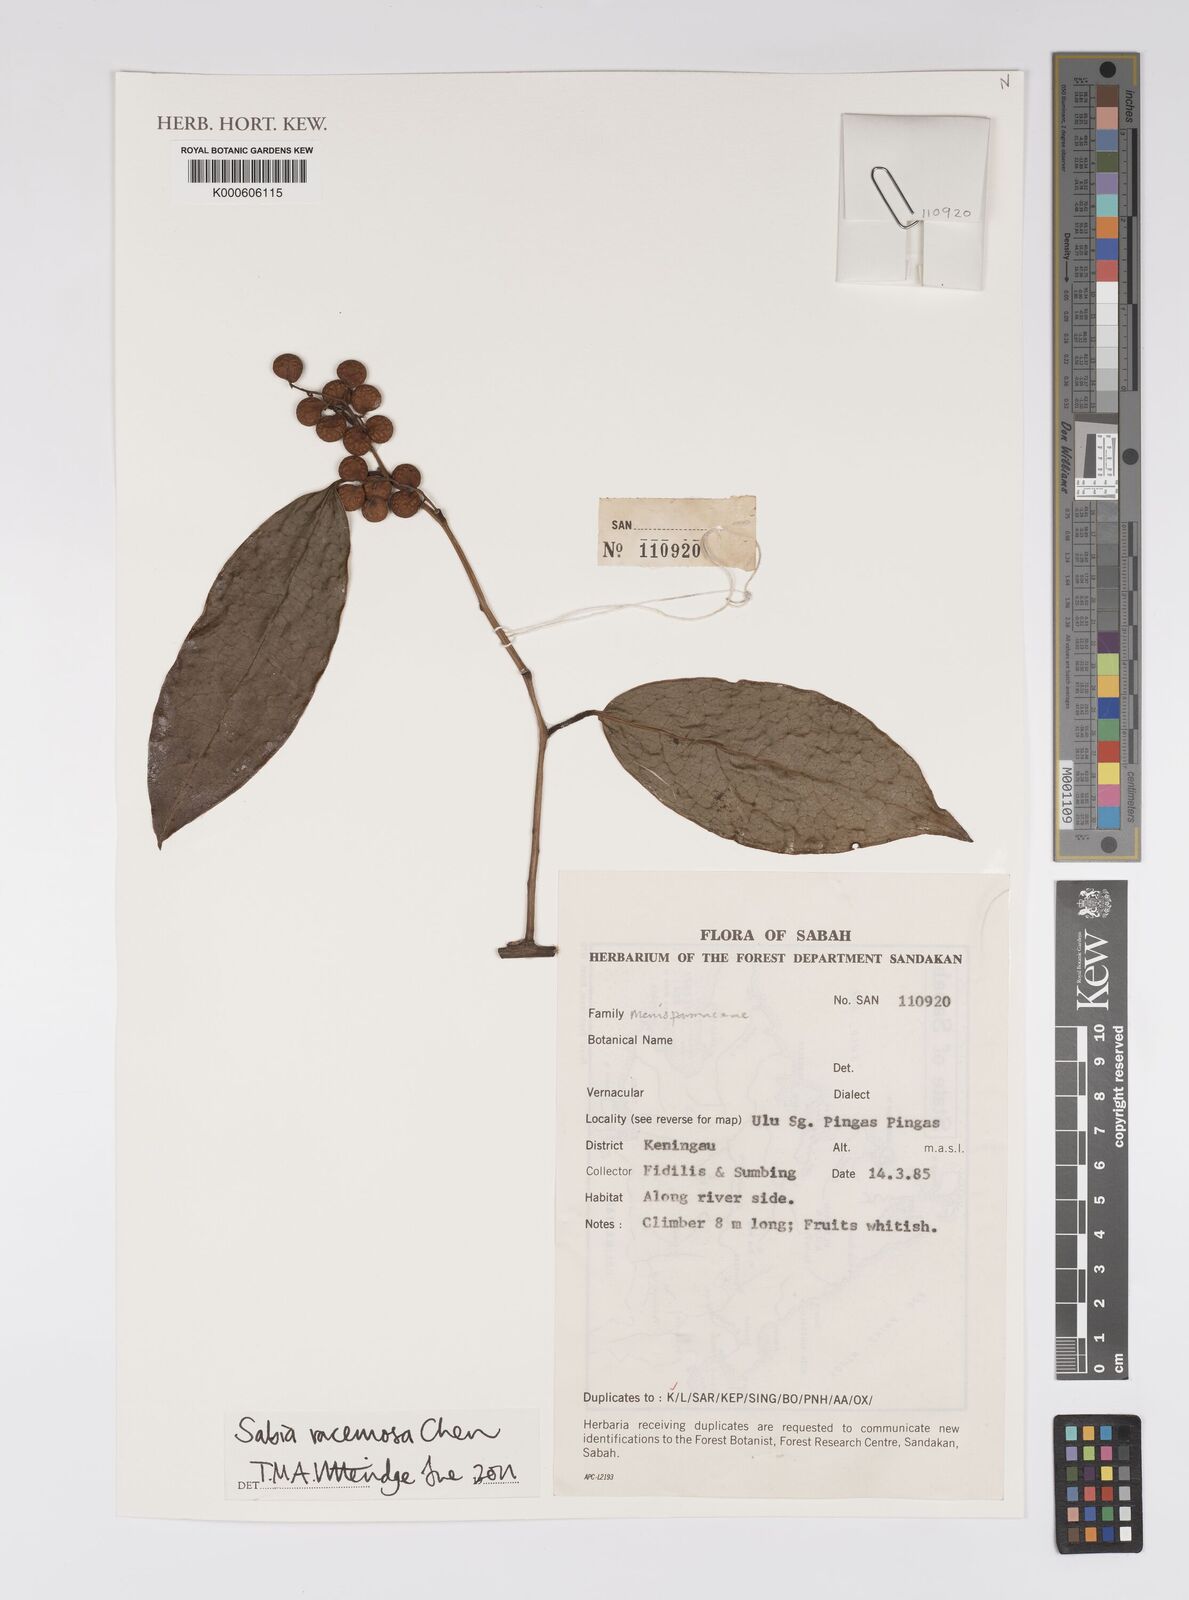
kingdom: Plantae
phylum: Tracheophyta
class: Magnoliopsida
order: Proteales
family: Sabiaceae
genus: Sabia
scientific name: Sabia racemosa
